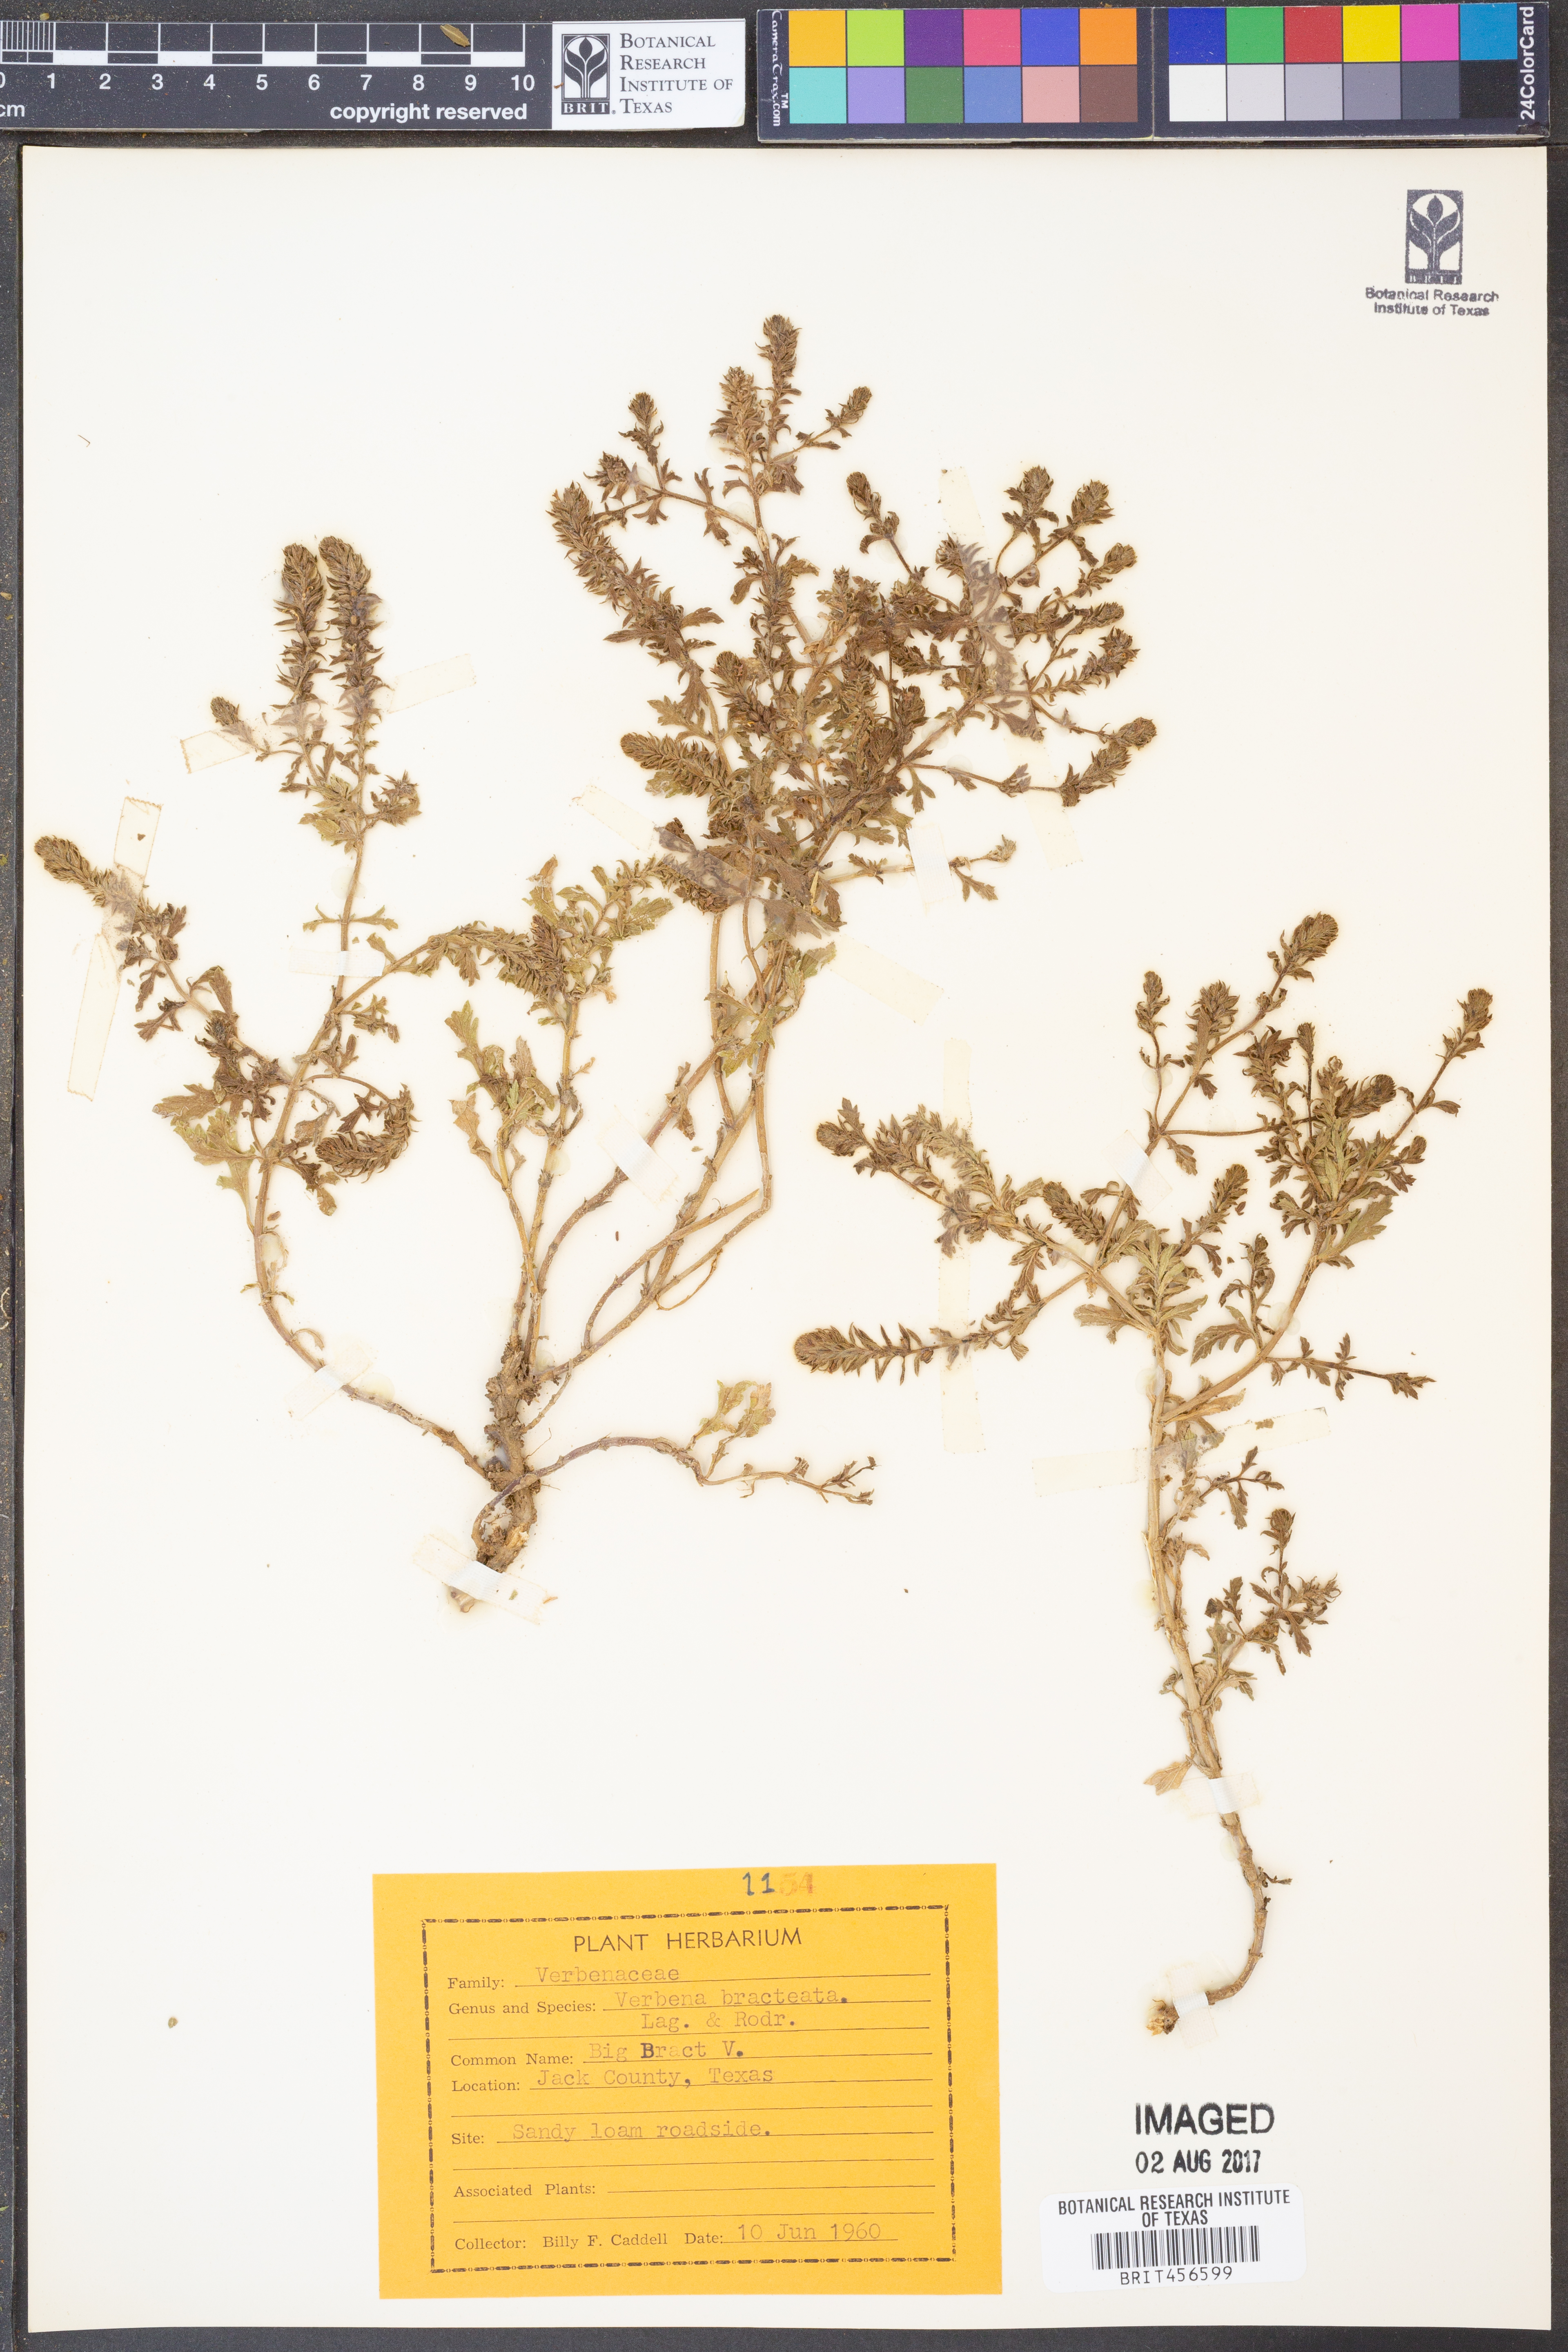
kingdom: Plantae
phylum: Tracheophyta
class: Magnoliopsida
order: Lamiales
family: Verbenaceae
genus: Verbena
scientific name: Verbena bracteata
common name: Bracted vervain
